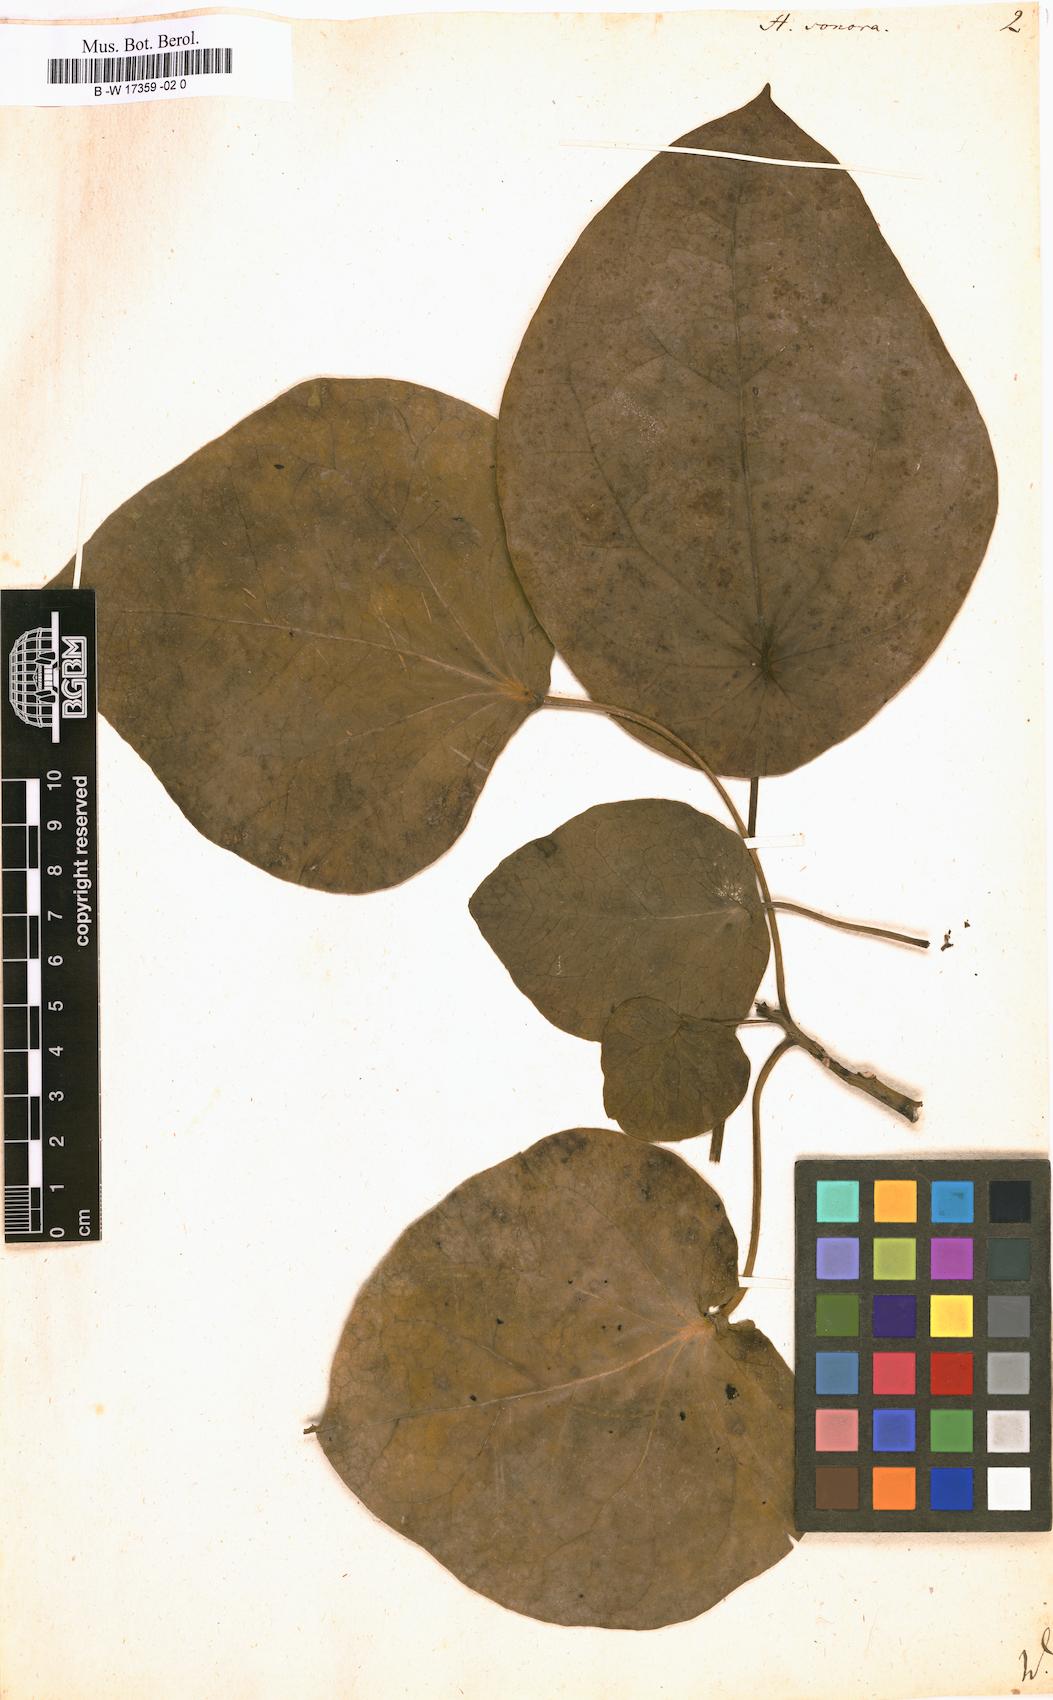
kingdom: Plantae
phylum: Tracheophyta
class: Magnoliopsida
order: Laurales
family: Hernandiaceae
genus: Hernandia
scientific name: Hernandia sonora
